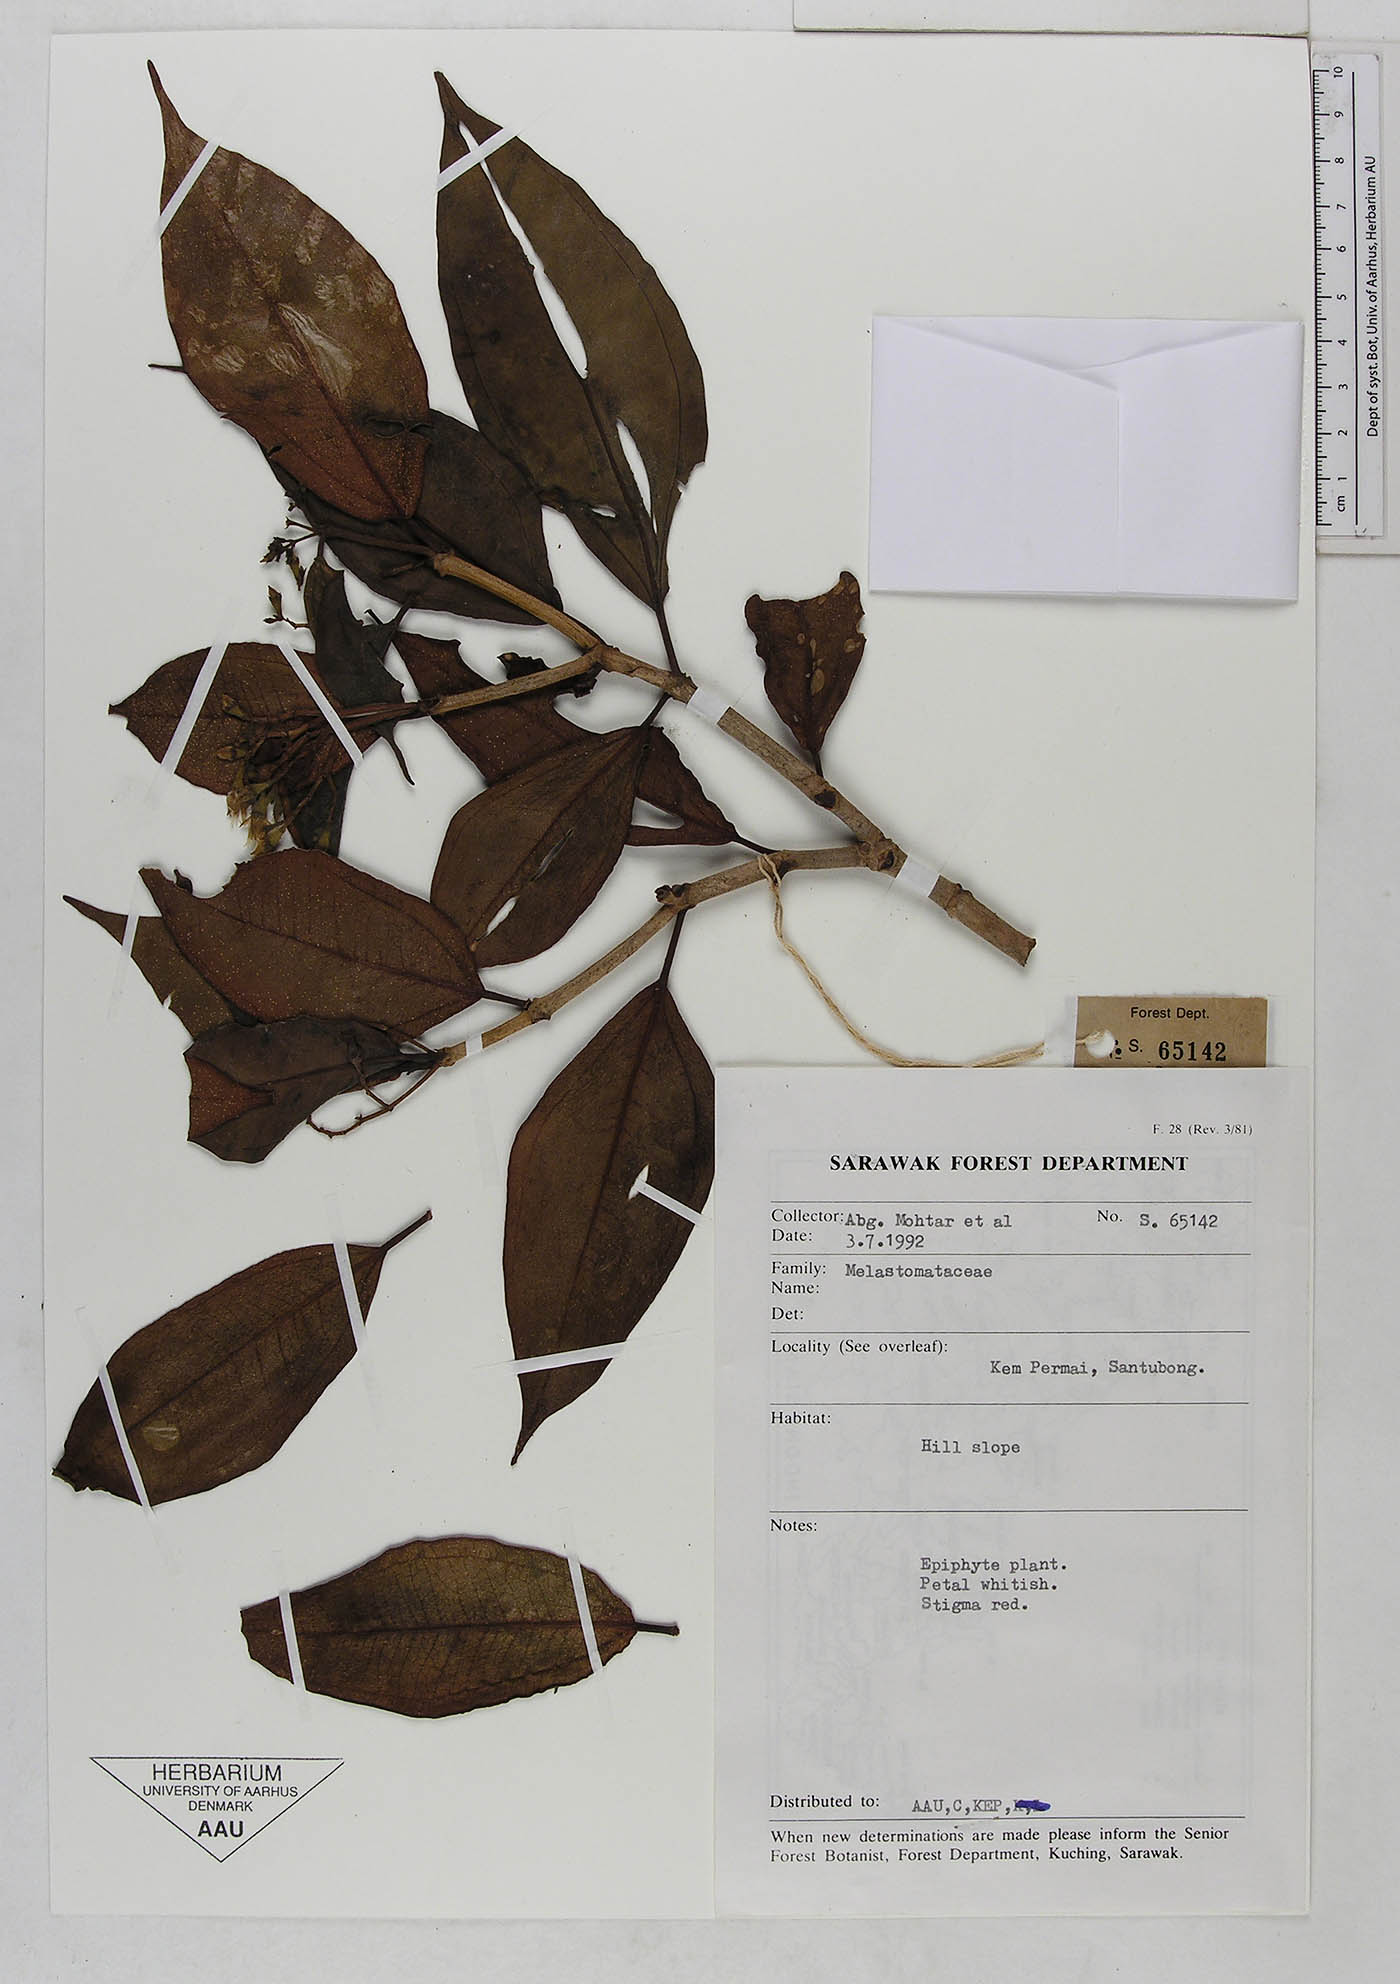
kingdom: Plantae
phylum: Tracheophyta
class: Magnoliopsida
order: Myrtales
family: Melastomataceae
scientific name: Melastomataceae
